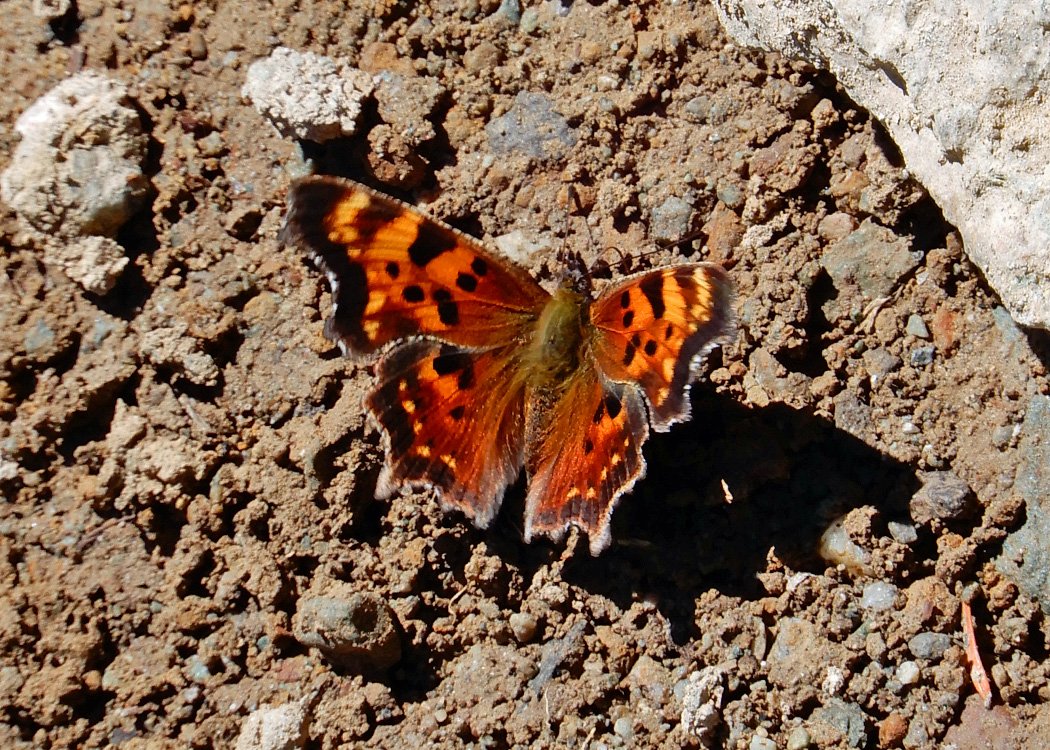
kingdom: Animalia
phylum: Arthropoda
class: Insecta
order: Lepidoptera
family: Nymphalidae
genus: Polygonia
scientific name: Polygonia satyrus
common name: Satyr Comma
